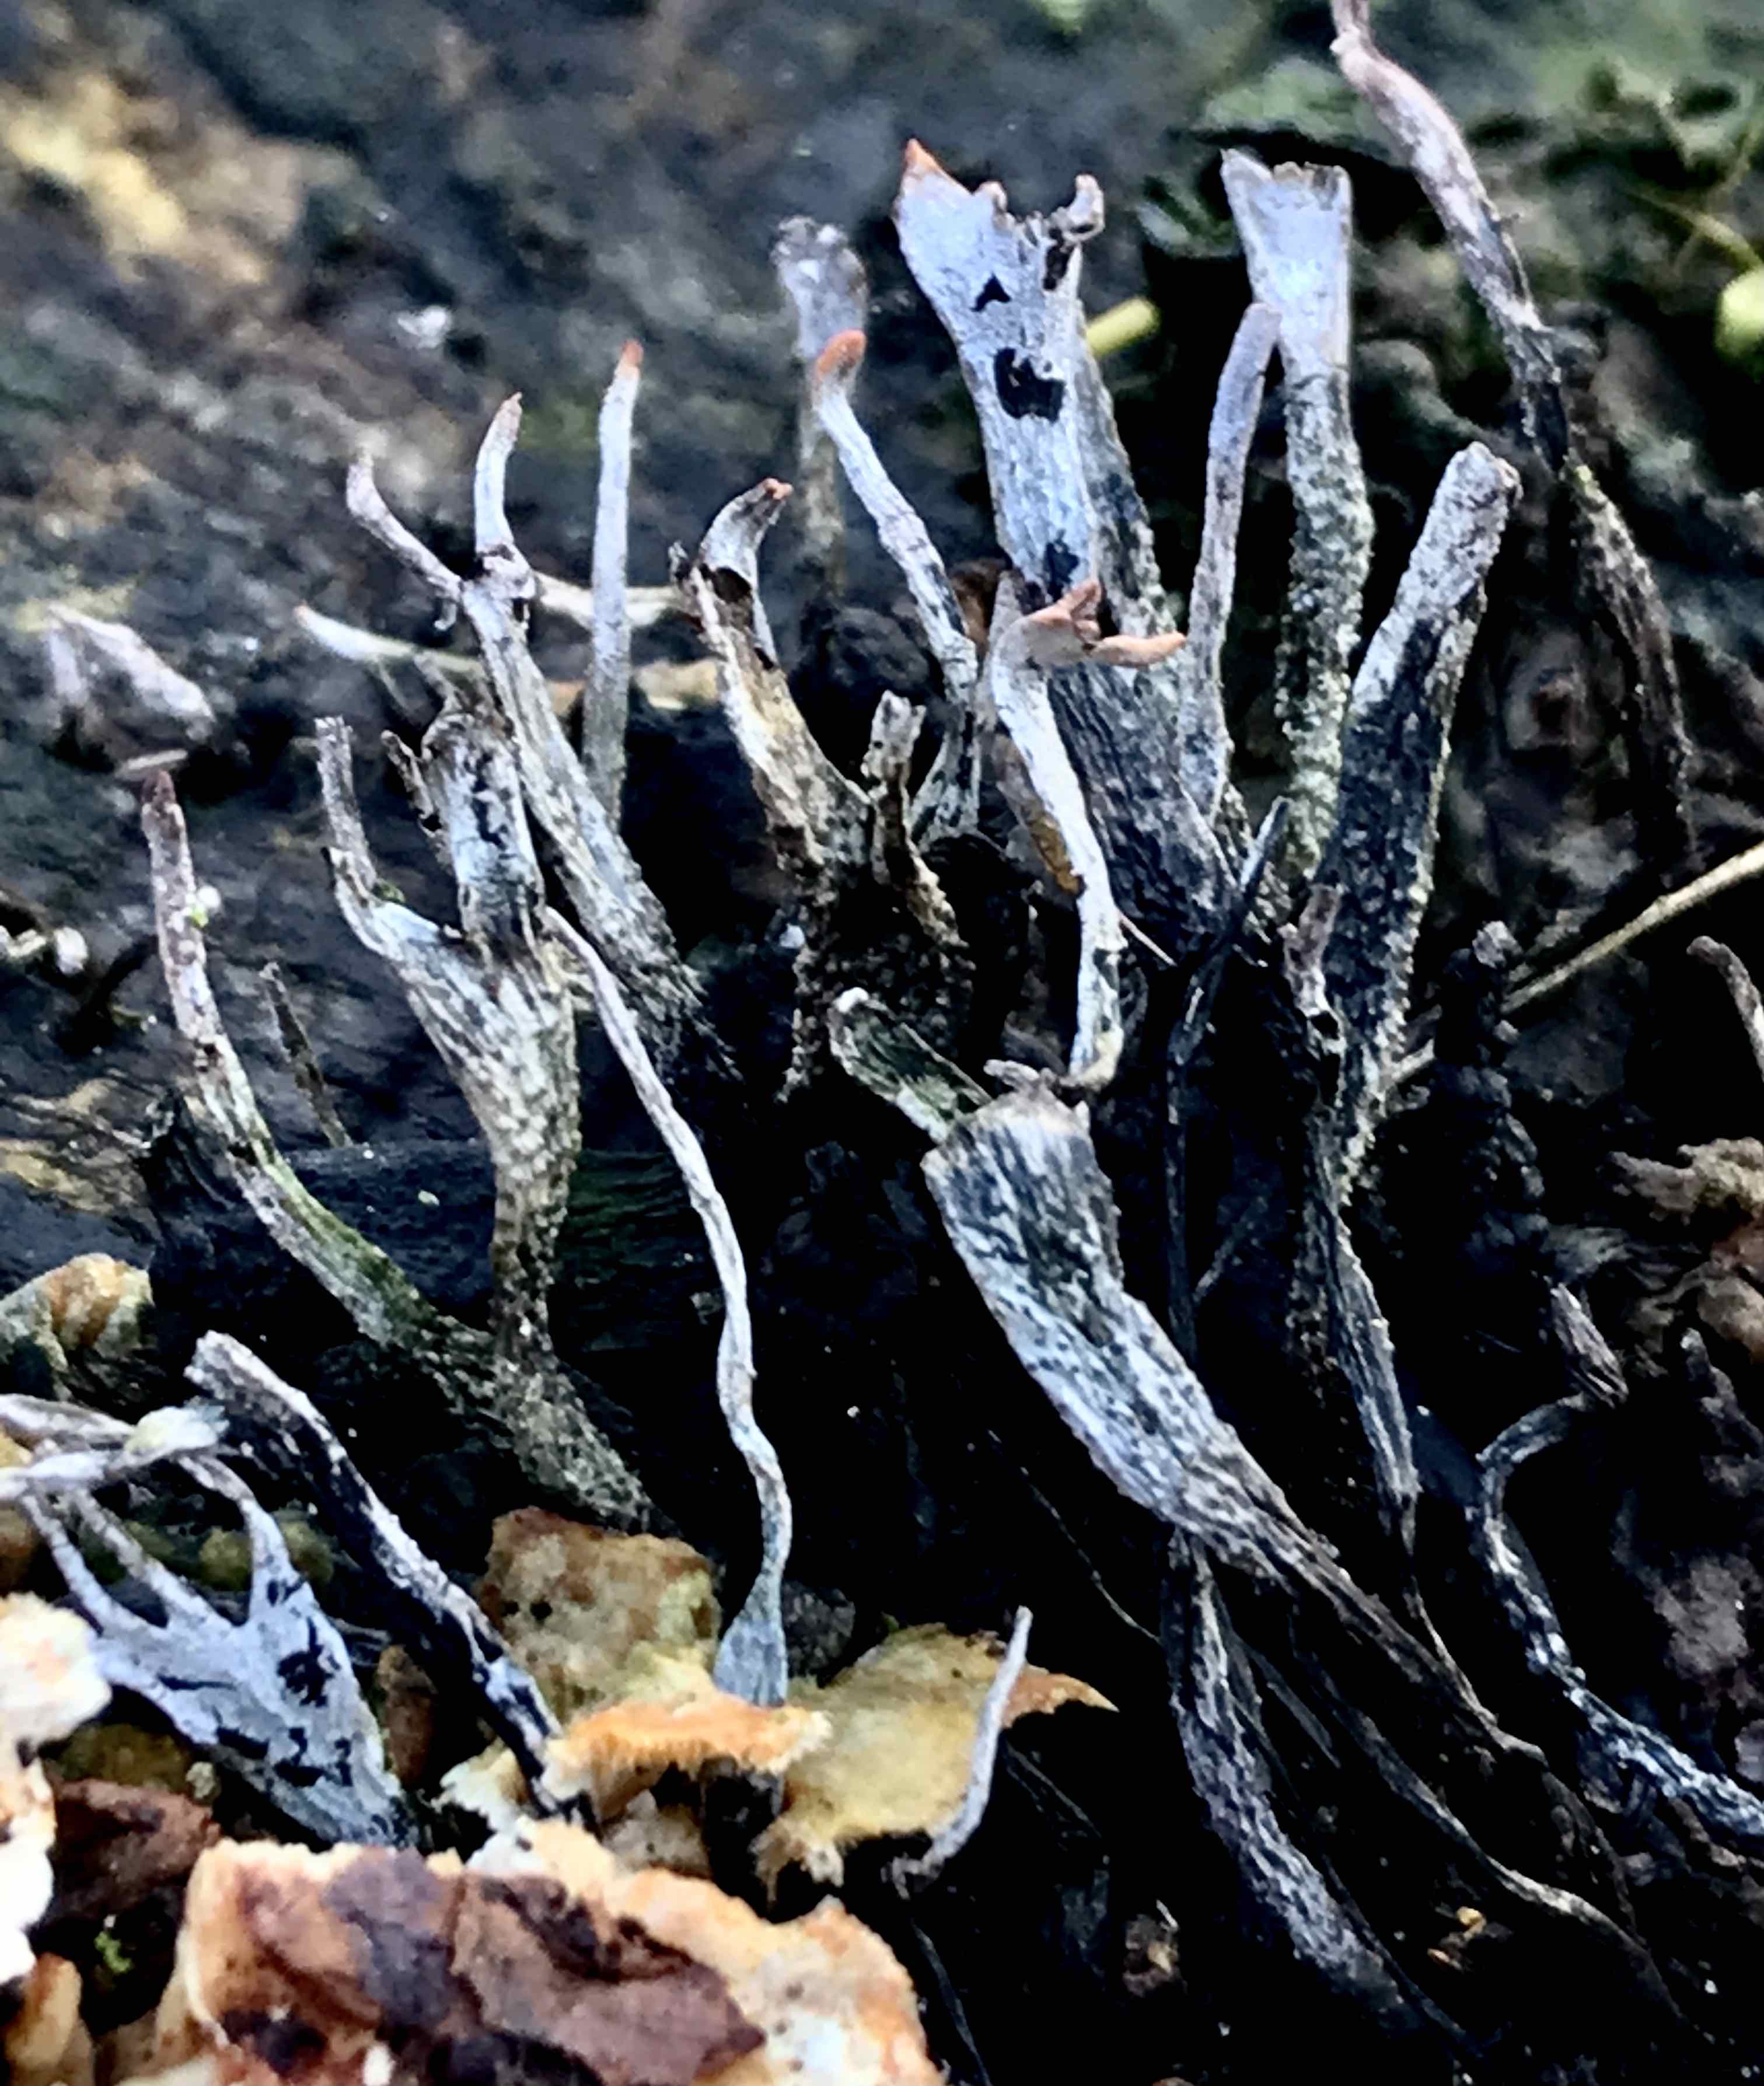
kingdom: Fungi
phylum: Ascomycota
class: Sordariomycetes
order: Xylariales
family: Xylariaceae
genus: Xylaria
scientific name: Xylaria hypoxylon
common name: grenet stødsvamp
